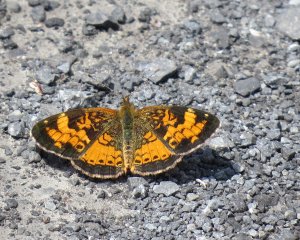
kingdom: Animalia
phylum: Arthropoda
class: Insecta
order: Lepidoptera
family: Nymphalidae
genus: Phyciodes
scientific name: Phyciodes tharos
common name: Northern Crescent
